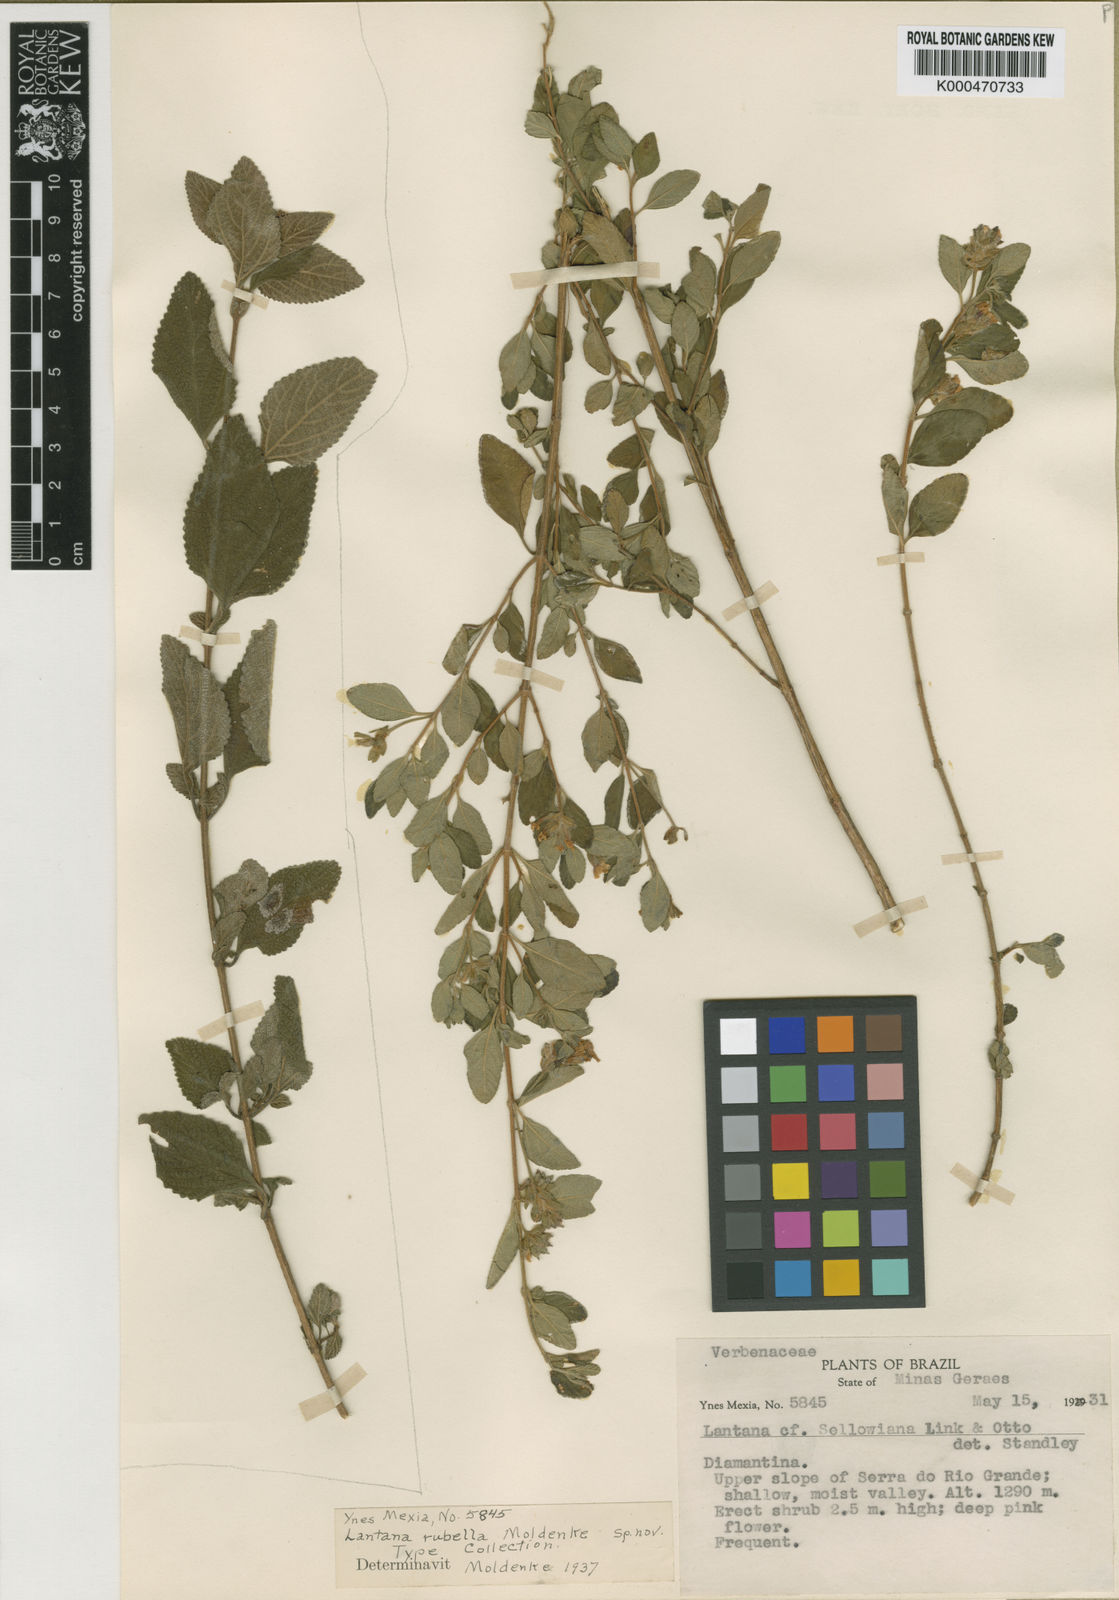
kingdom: Plantae
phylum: Tracheophyta
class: Magnoliopsida
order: Lamiales
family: Verbenaceae
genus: Lippia
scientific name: Lippia rubella
